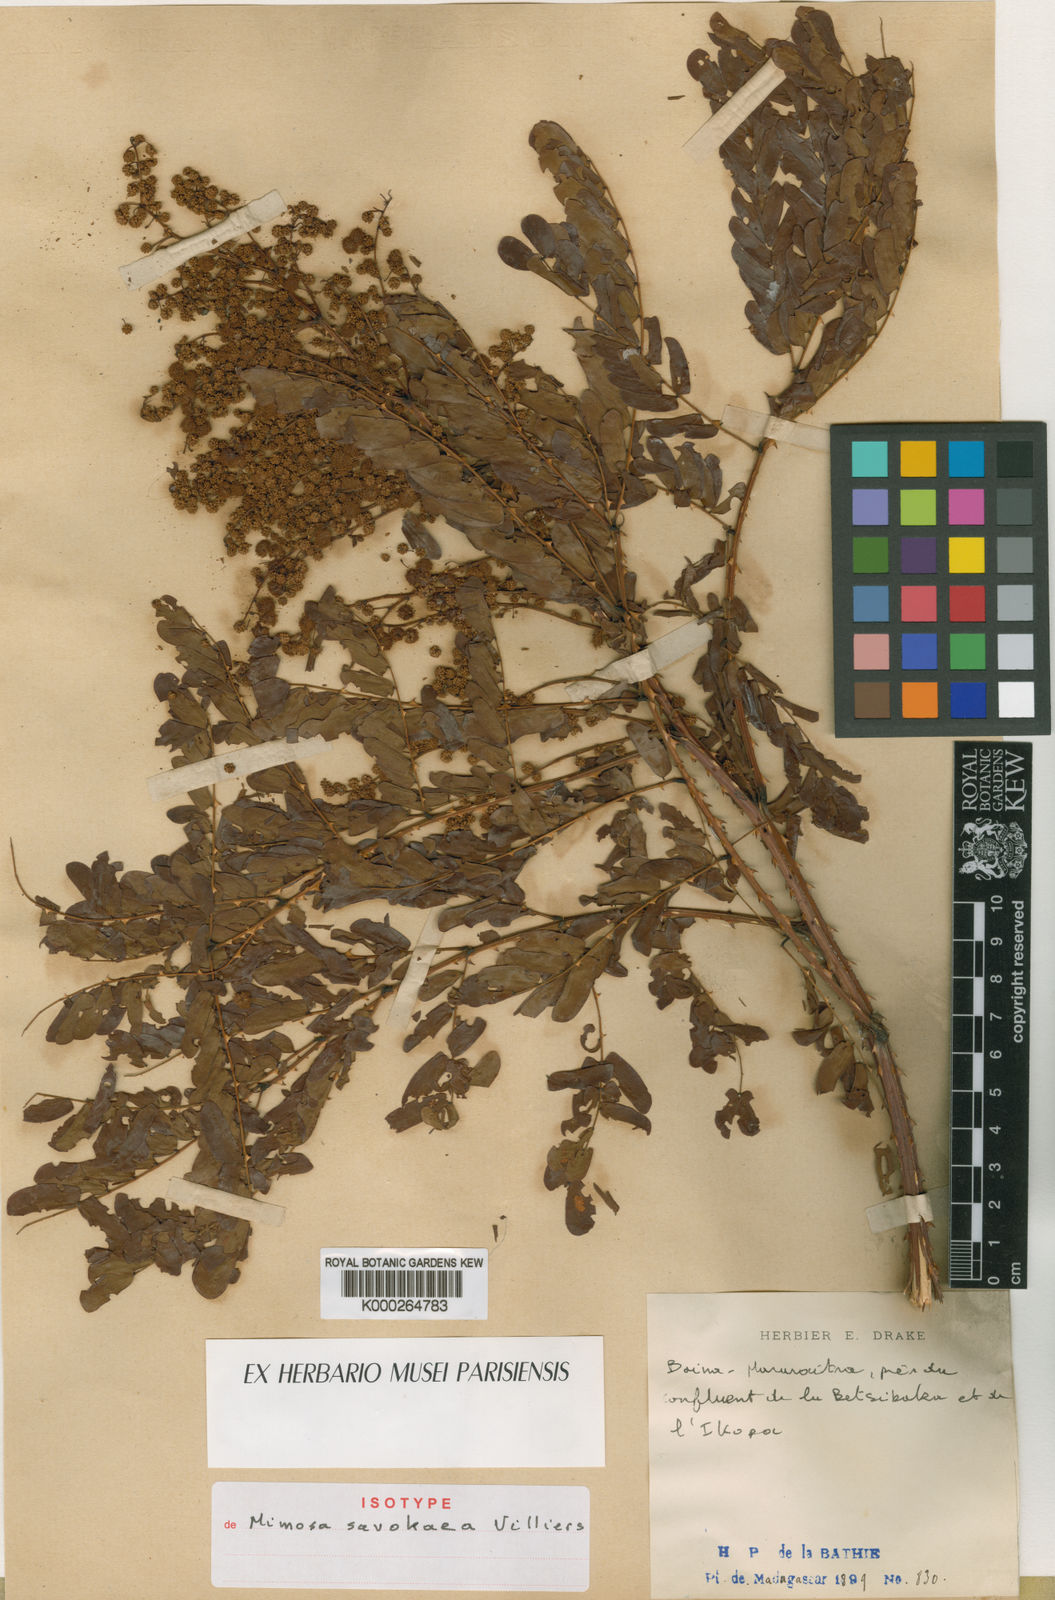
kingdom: Plantae
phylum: Tracheophyta
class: Magnoliopsida
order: Fabales
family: Fabaceae
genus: Mimosa
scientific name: Mimosa savokaea
